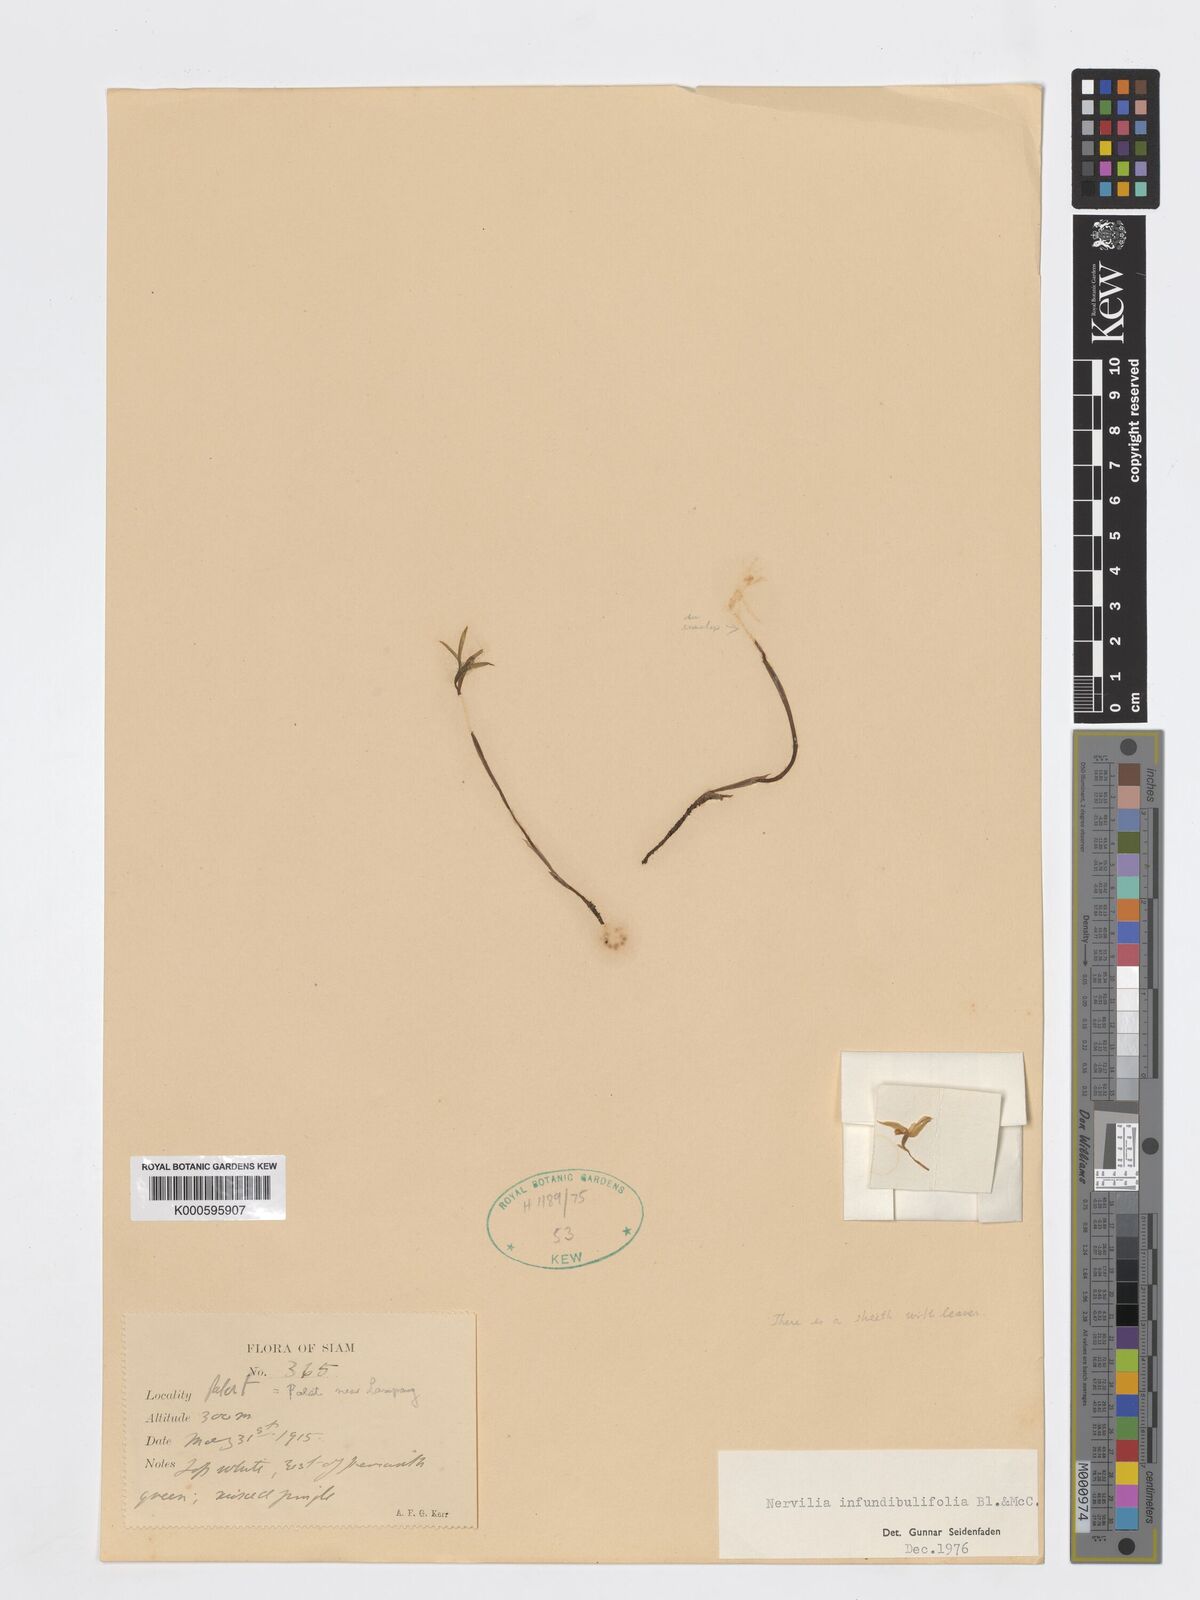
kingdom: Plantae
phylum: Tracheophyta
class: Liliopsida
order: Asparagales
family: Orchidaceae
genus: Nervilia
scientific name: Nervilia infundibulifolia
